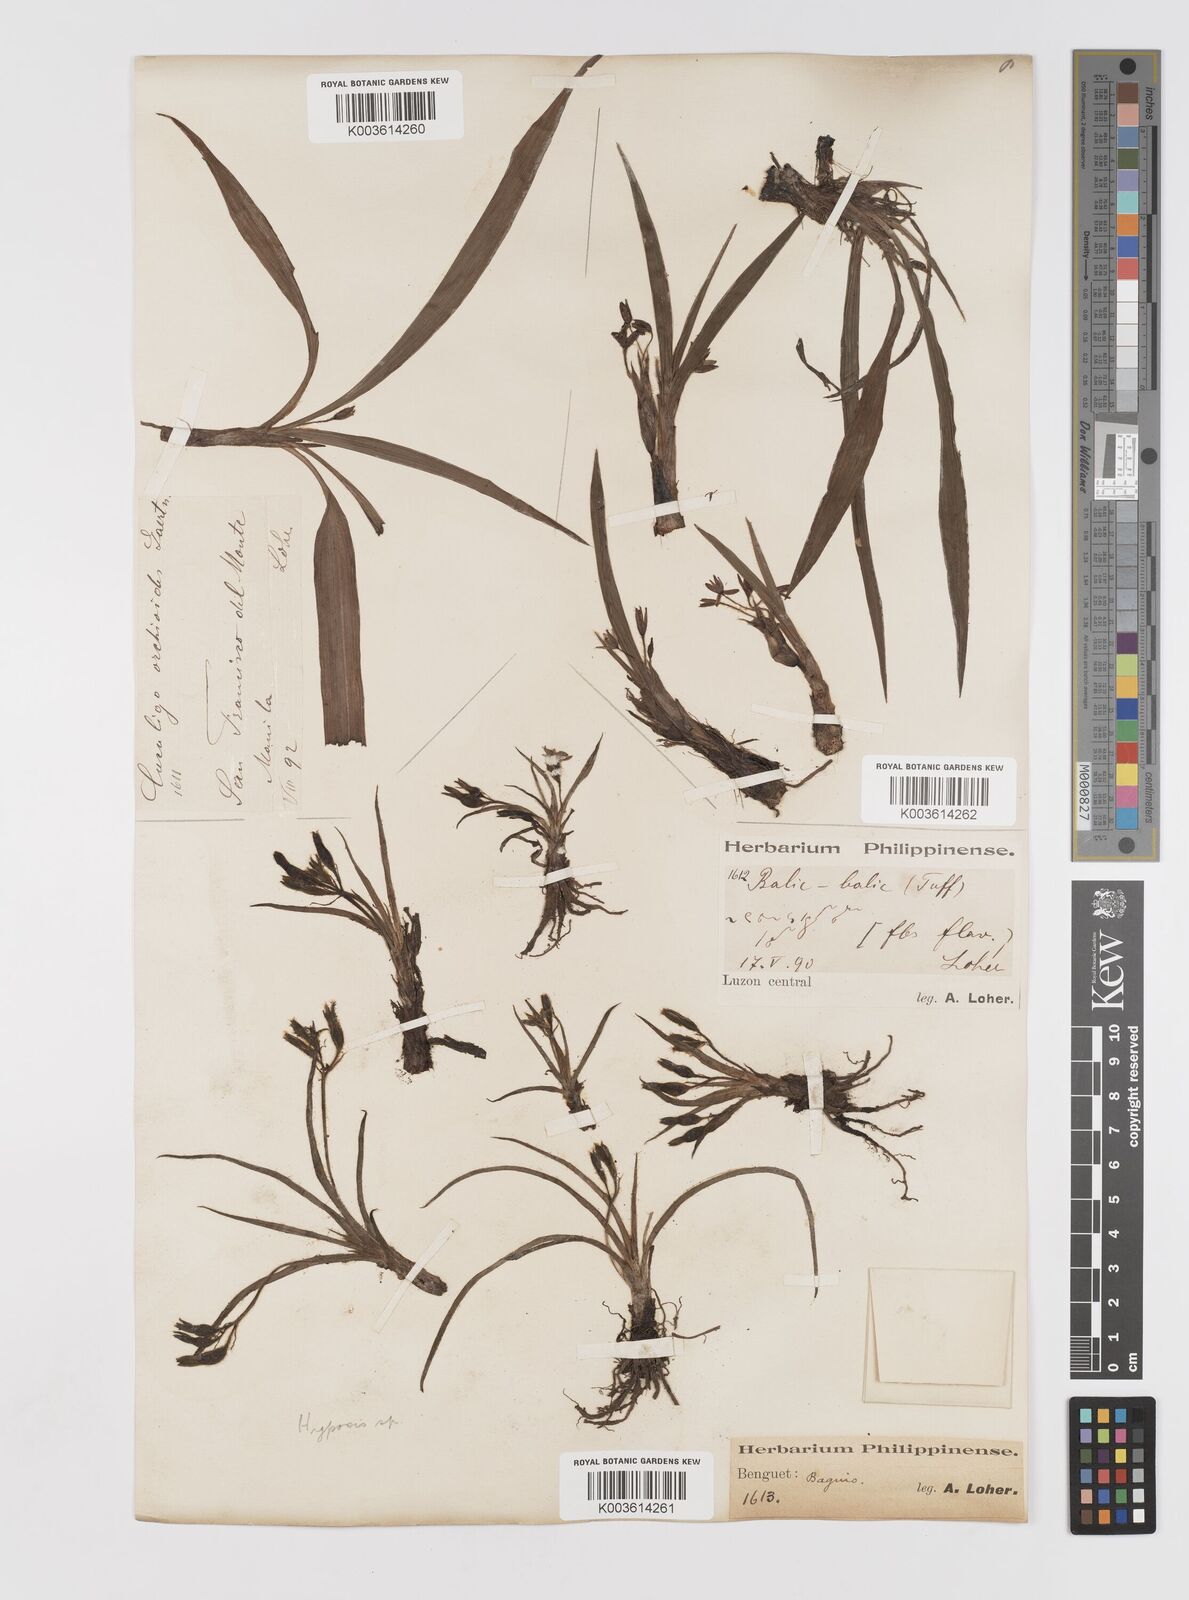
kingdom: Plantae
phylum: Tracheophyta
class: Liliopsida
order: Asparagales
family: Hypoxidaceae
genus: Curculigo
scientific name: Curculigo orchioides
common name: Golden eye-grass
